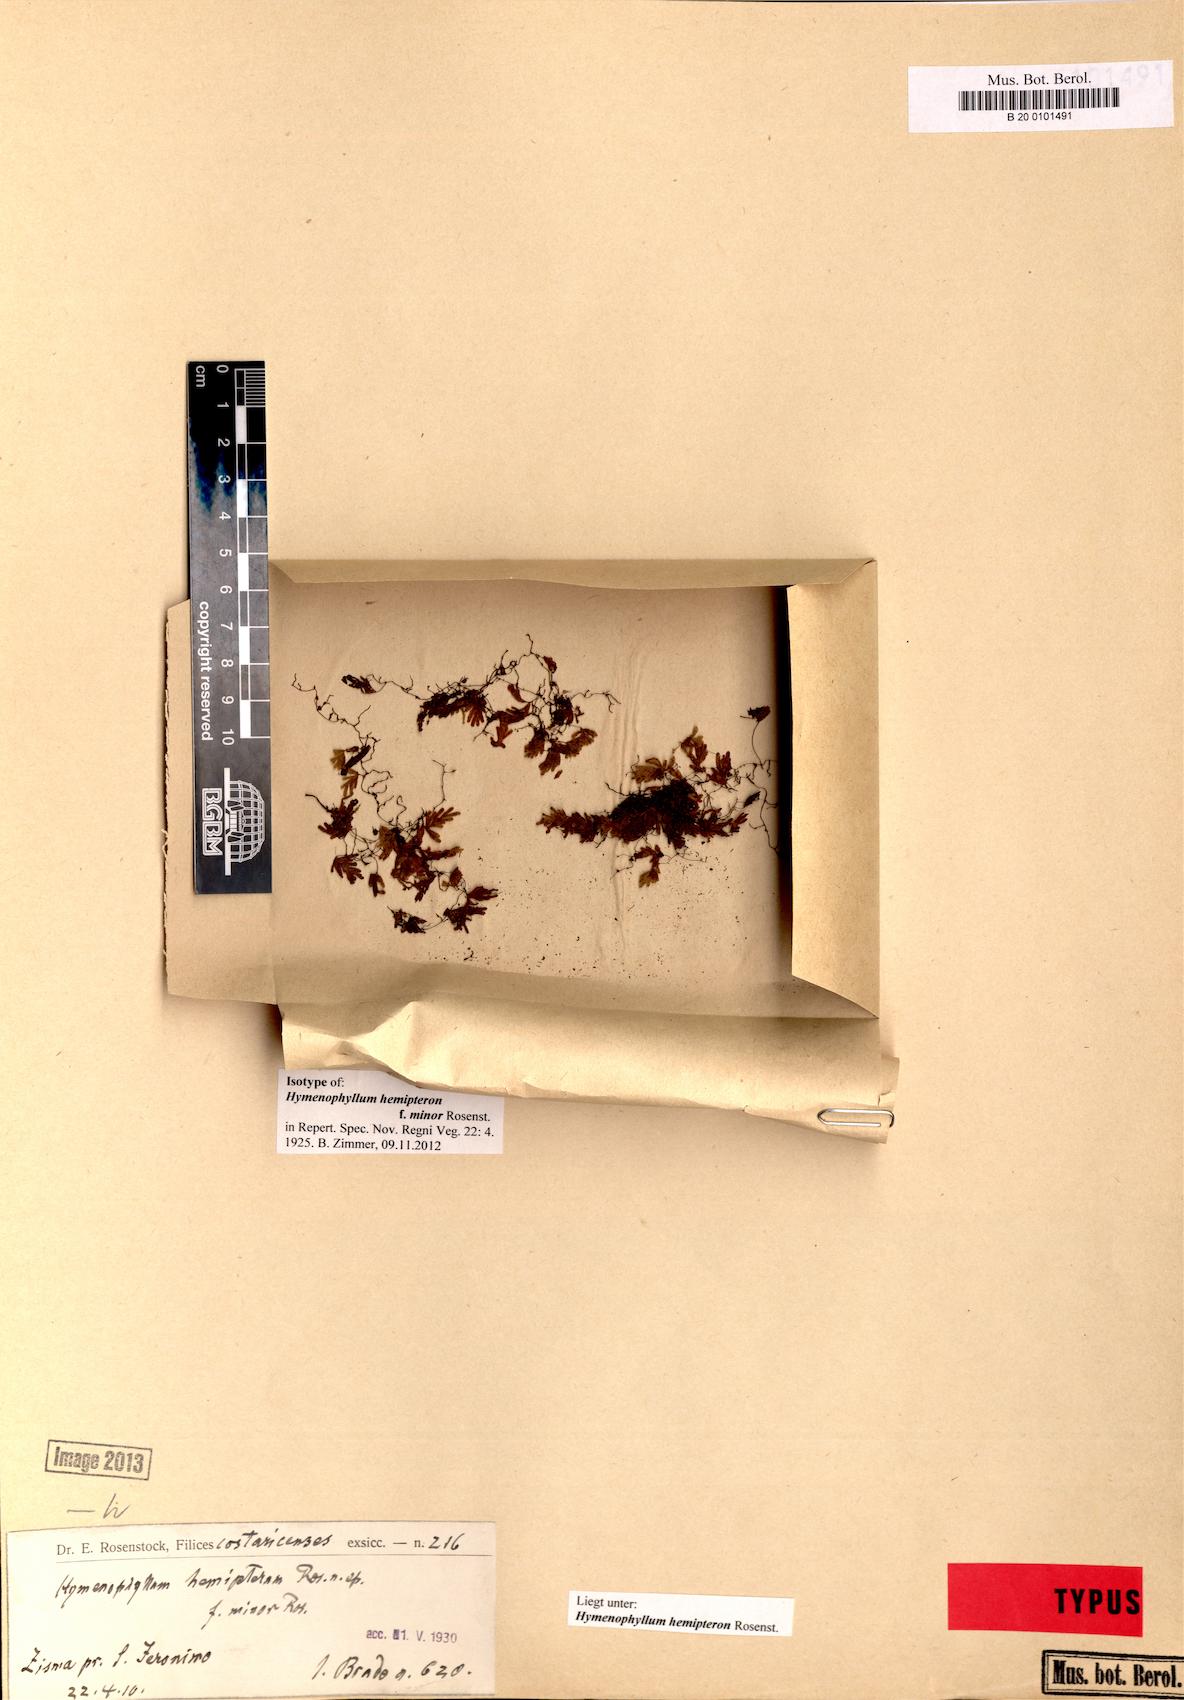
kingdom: Plantae
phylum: Tracheophyta
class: Polypodiopsida
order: Hymenophyllales
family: Hymenophyllaceae
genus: Hymenophyllum
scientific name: Hymenophyllum hemipteron
